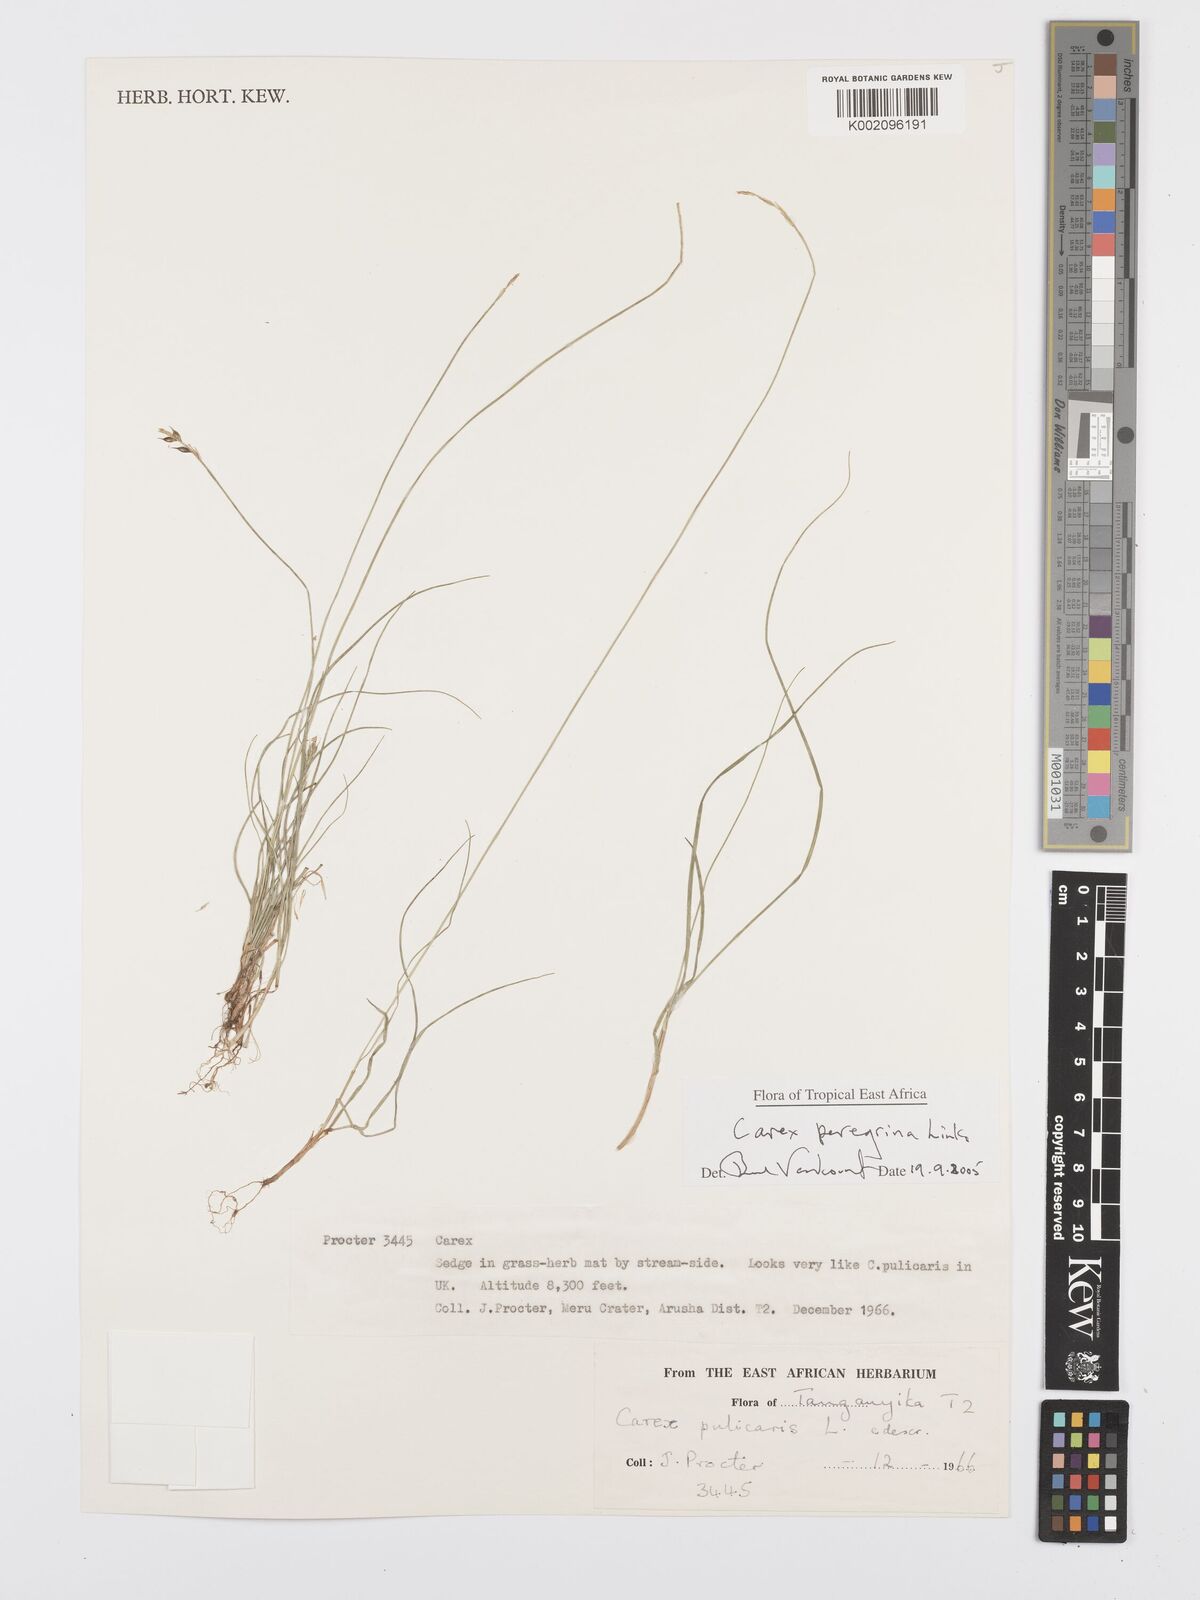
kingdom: Plantae
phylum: Tracheophyta
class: Liliopsida
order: Poales
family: Cyperaceae
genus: Carex
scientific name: Carex peregrina
